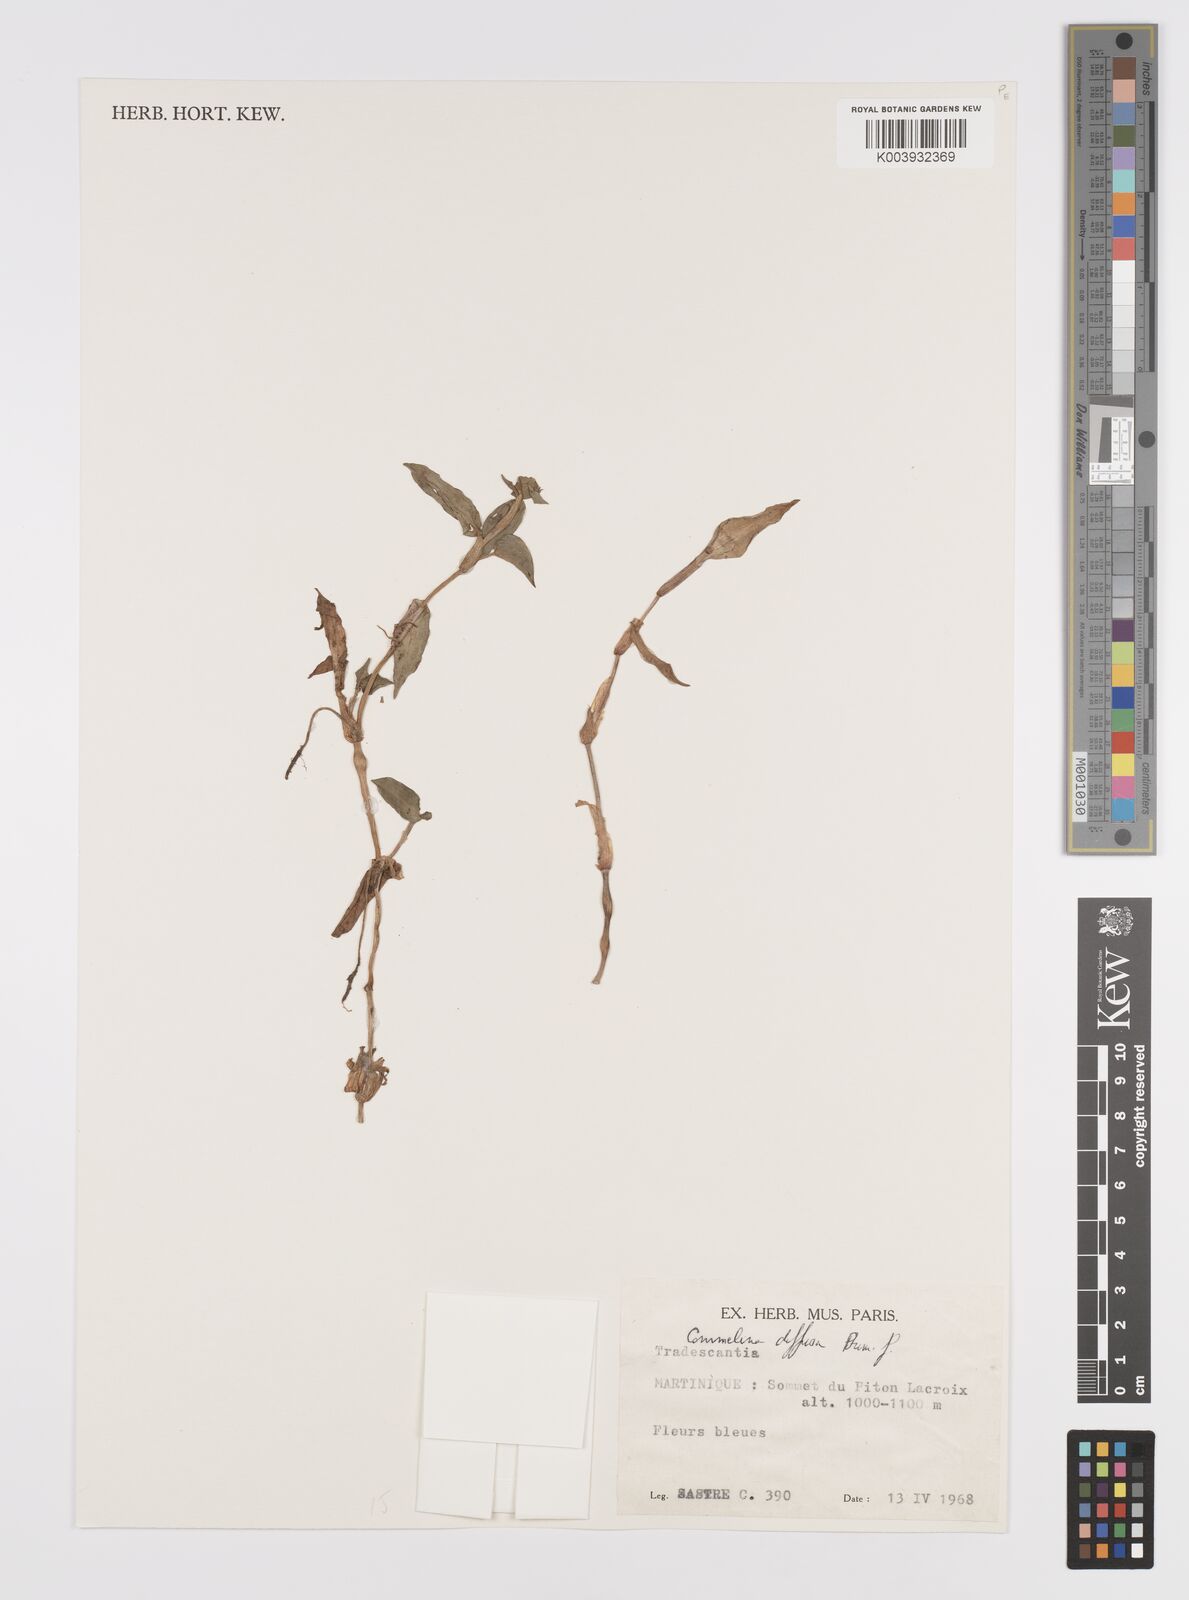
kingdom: Plantae
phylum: Tracheophyta
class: Liliopsida
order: Commelinales
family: Commelinaceae
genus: Commelina
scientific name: Commelina diffusa
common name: Climbing dayflower
